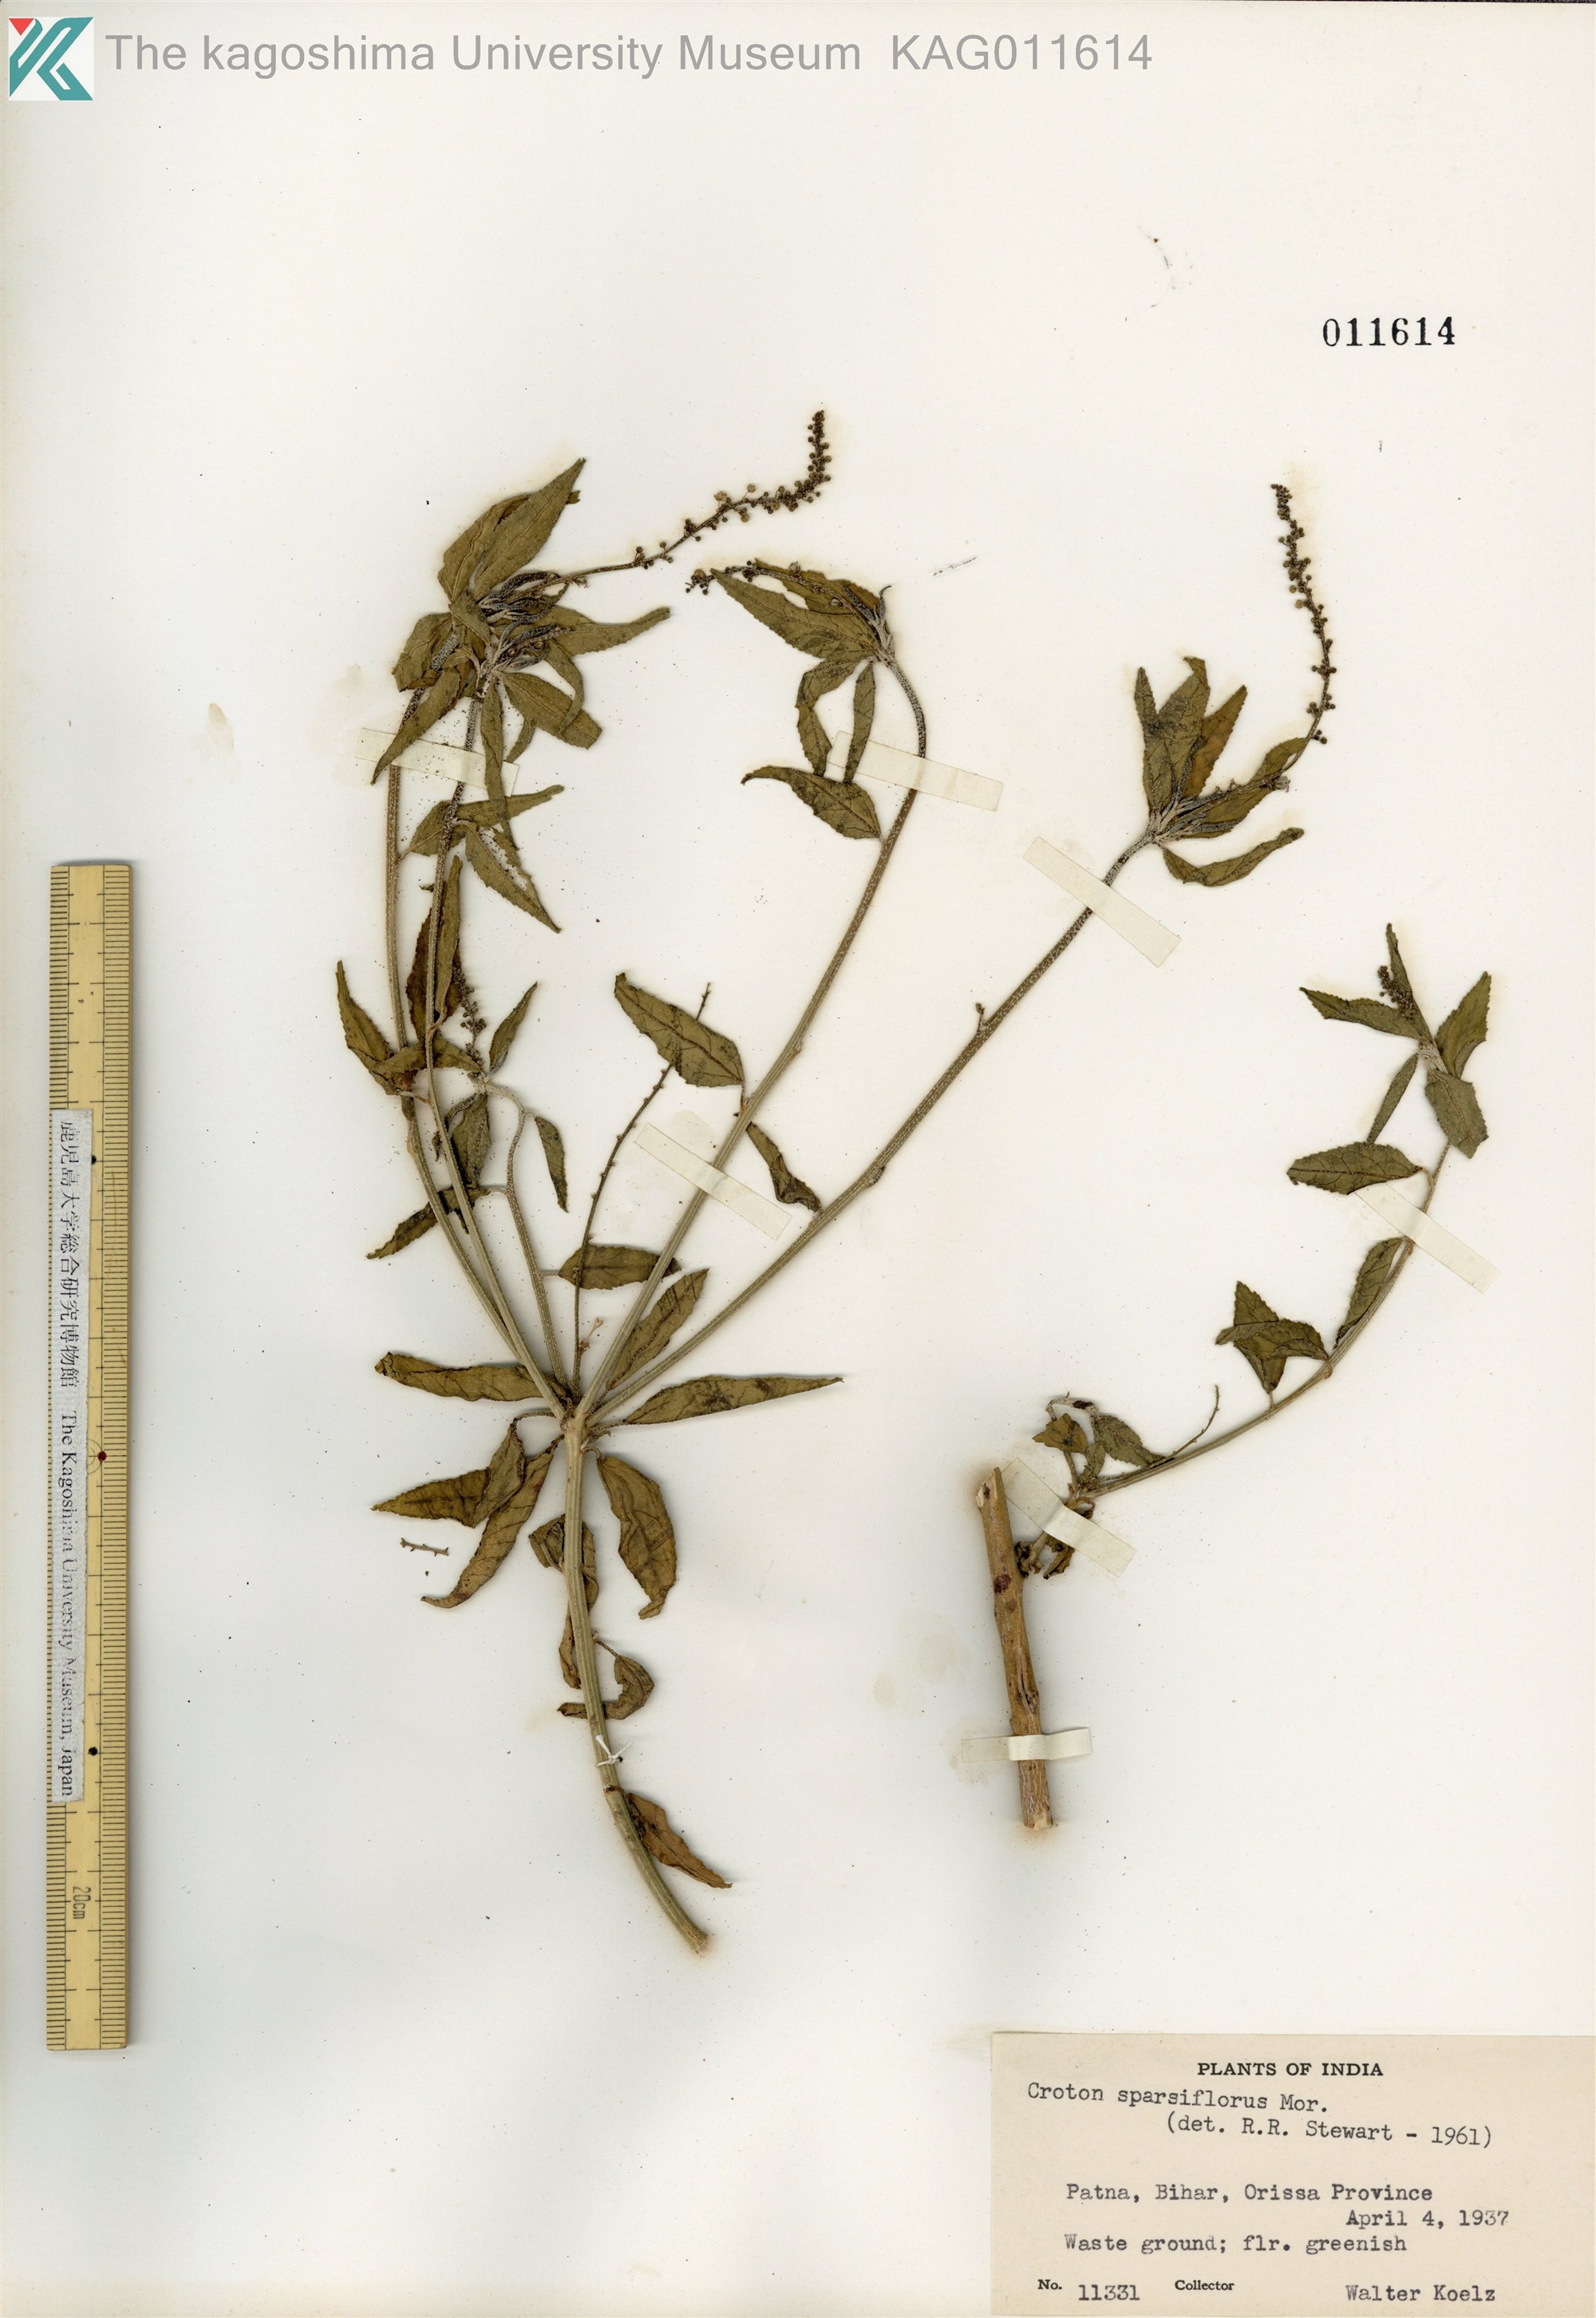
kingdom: Plantae
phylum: Tracheophyta
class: Magnoliopsida
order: Malpighiales
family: Euphorbiaceae
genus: Croton
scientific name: Croton bonplandianus
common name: Bonpland's croton
